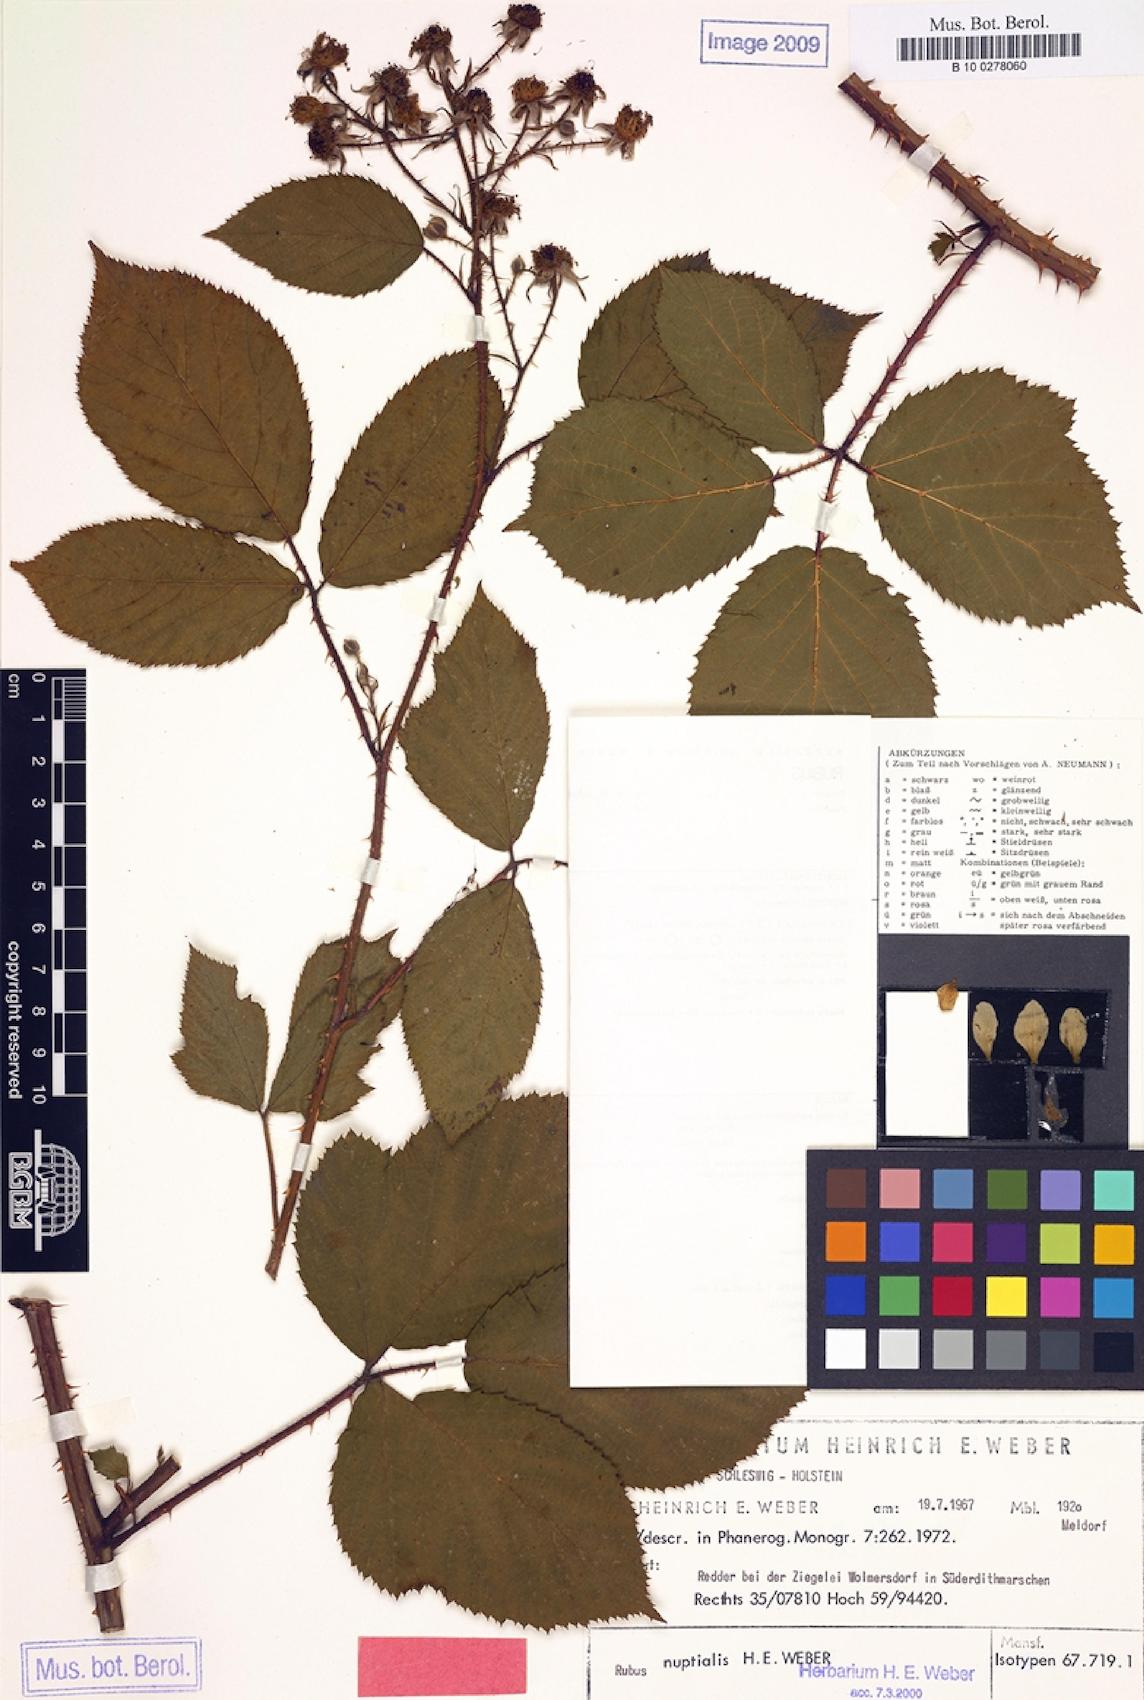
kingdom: Plantae
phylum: Tracheophyta
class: Magnoliopsida
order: Rosales
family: Rosaceae
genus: Rubus
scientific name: Rubus nuptialis
